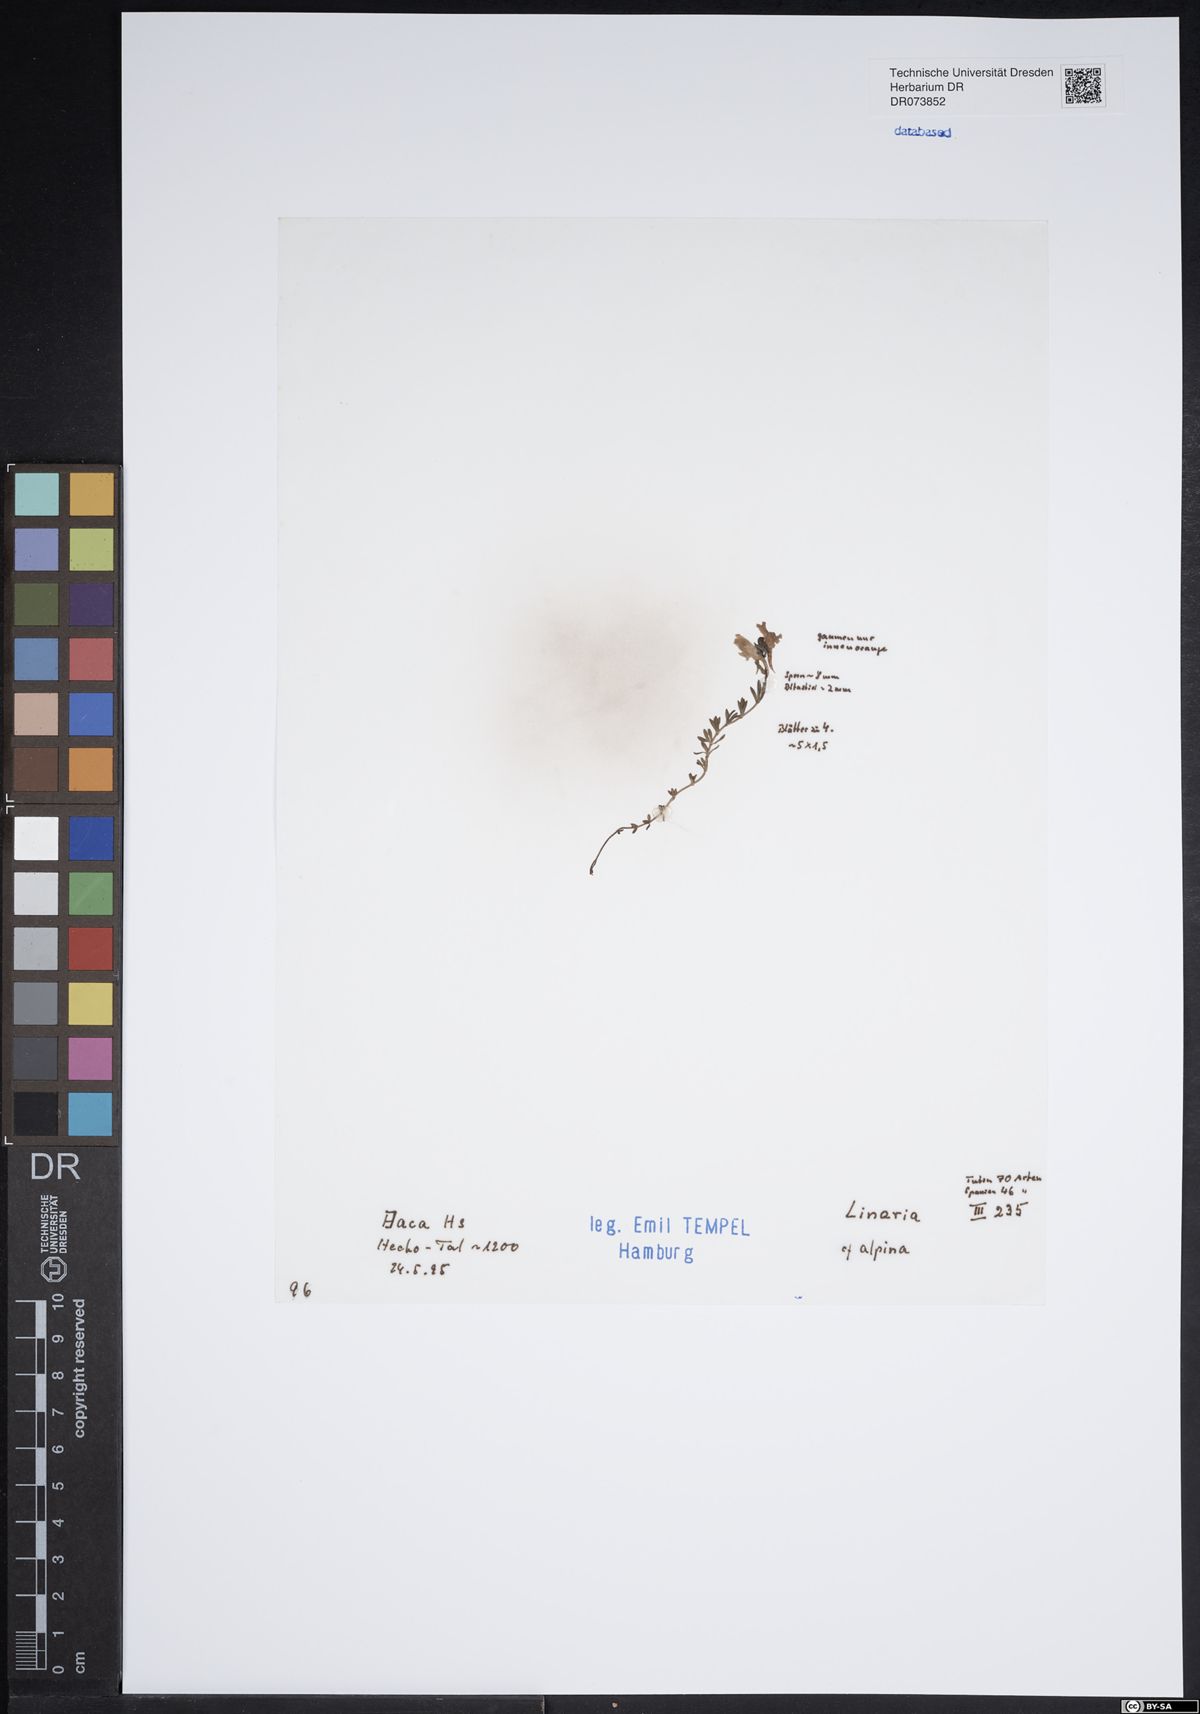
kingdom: Plantae
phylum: Tracheophyta
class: Magnoliopsida
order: Lamiales
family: Plantaginaceae
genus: Linaria
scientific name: Linaria alpina
